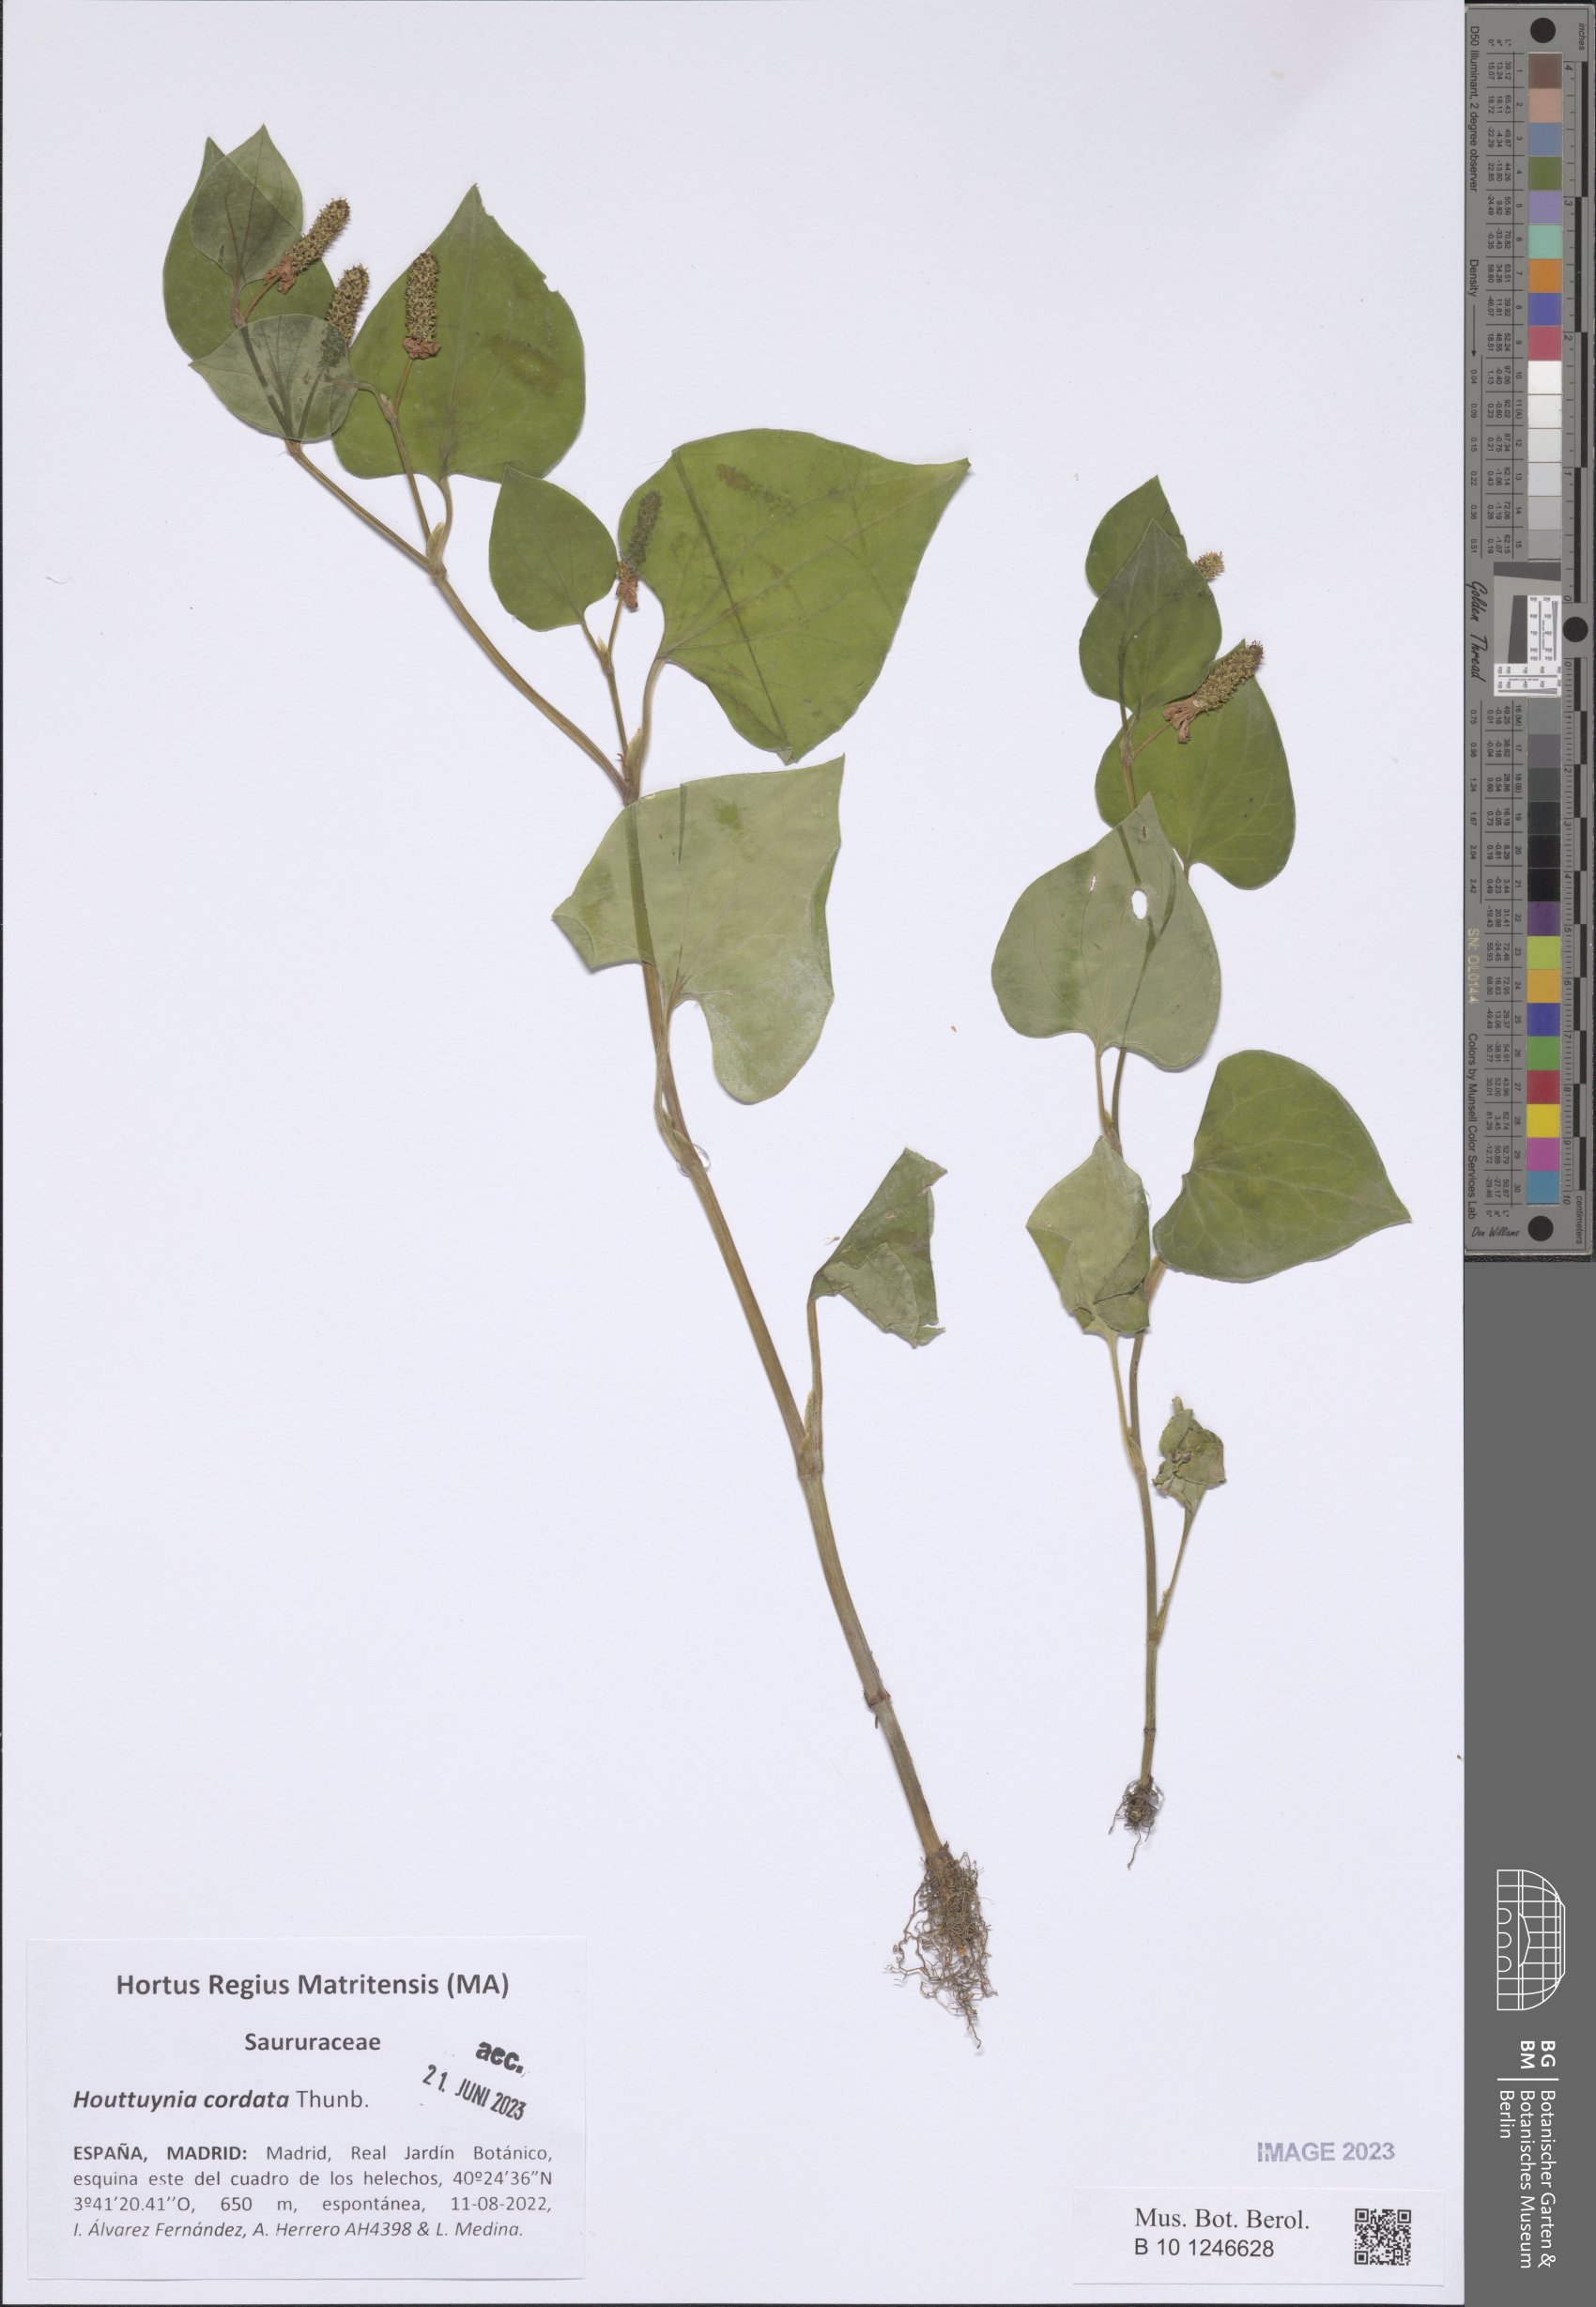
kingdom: Plantae
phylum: Tracheophyta
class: Magnoliopsida
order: Piperales
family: Saururaceae
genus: Houttuynia
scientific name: Houttuynia cordata
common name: Chameleon
